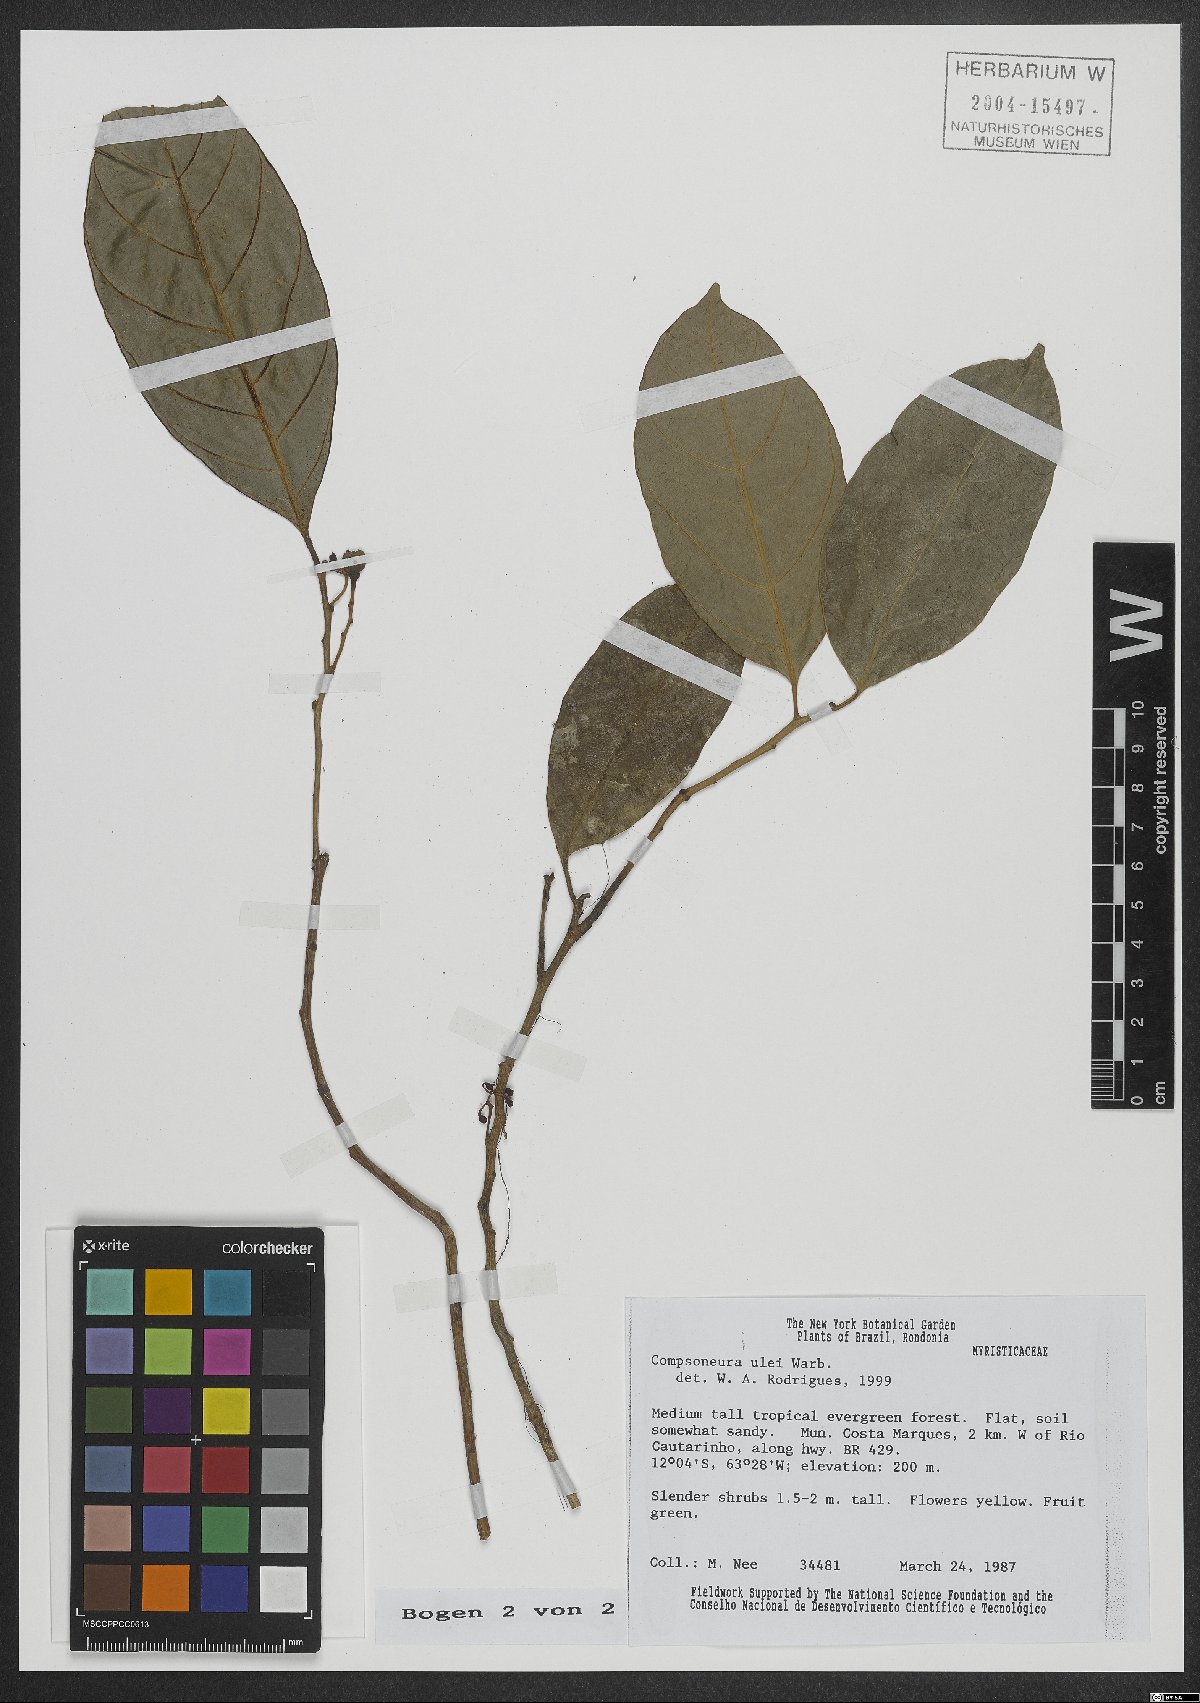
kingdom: Plantae
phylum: Tracheophyta
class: Magnoliopsida
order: Magnoliales
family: Myristicaceae
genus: Compsoneura
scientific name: Compsoneura ulei
